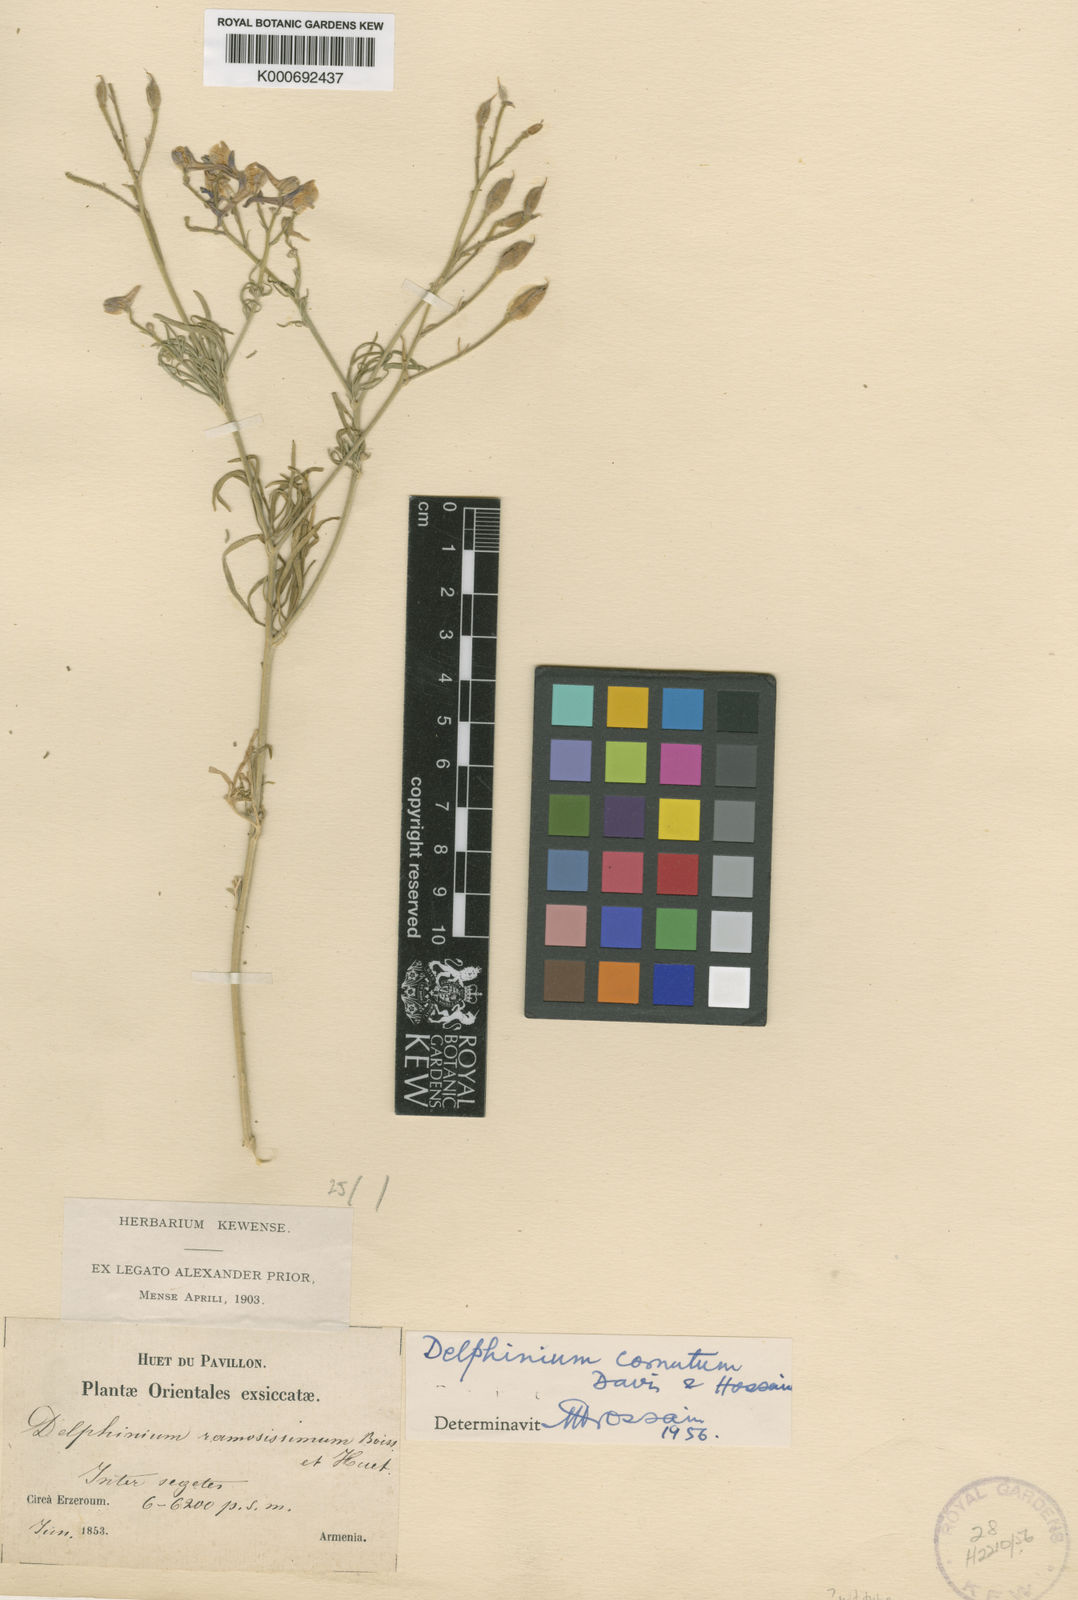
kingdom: Plantae
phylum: Tracheophyta
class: Magnoliopsida
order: Ranunculales
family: Ranunculaceae
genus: Delphinium
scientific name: Delphinium cornutum
